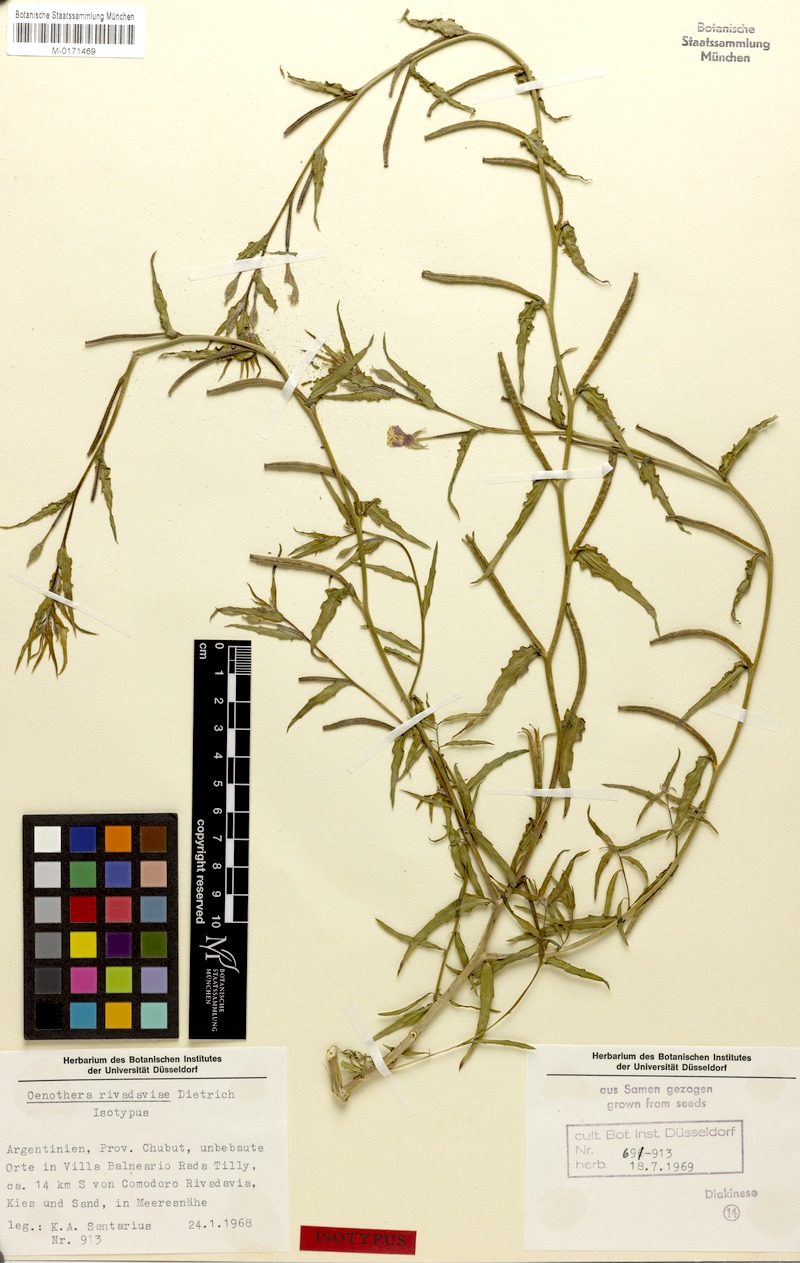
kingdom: Plantae
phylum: Tracheophyta
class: Magnoliopsida
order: Myrtales
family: Onagraceae
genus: Oenothera
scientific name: Oenothera rivadaviae
